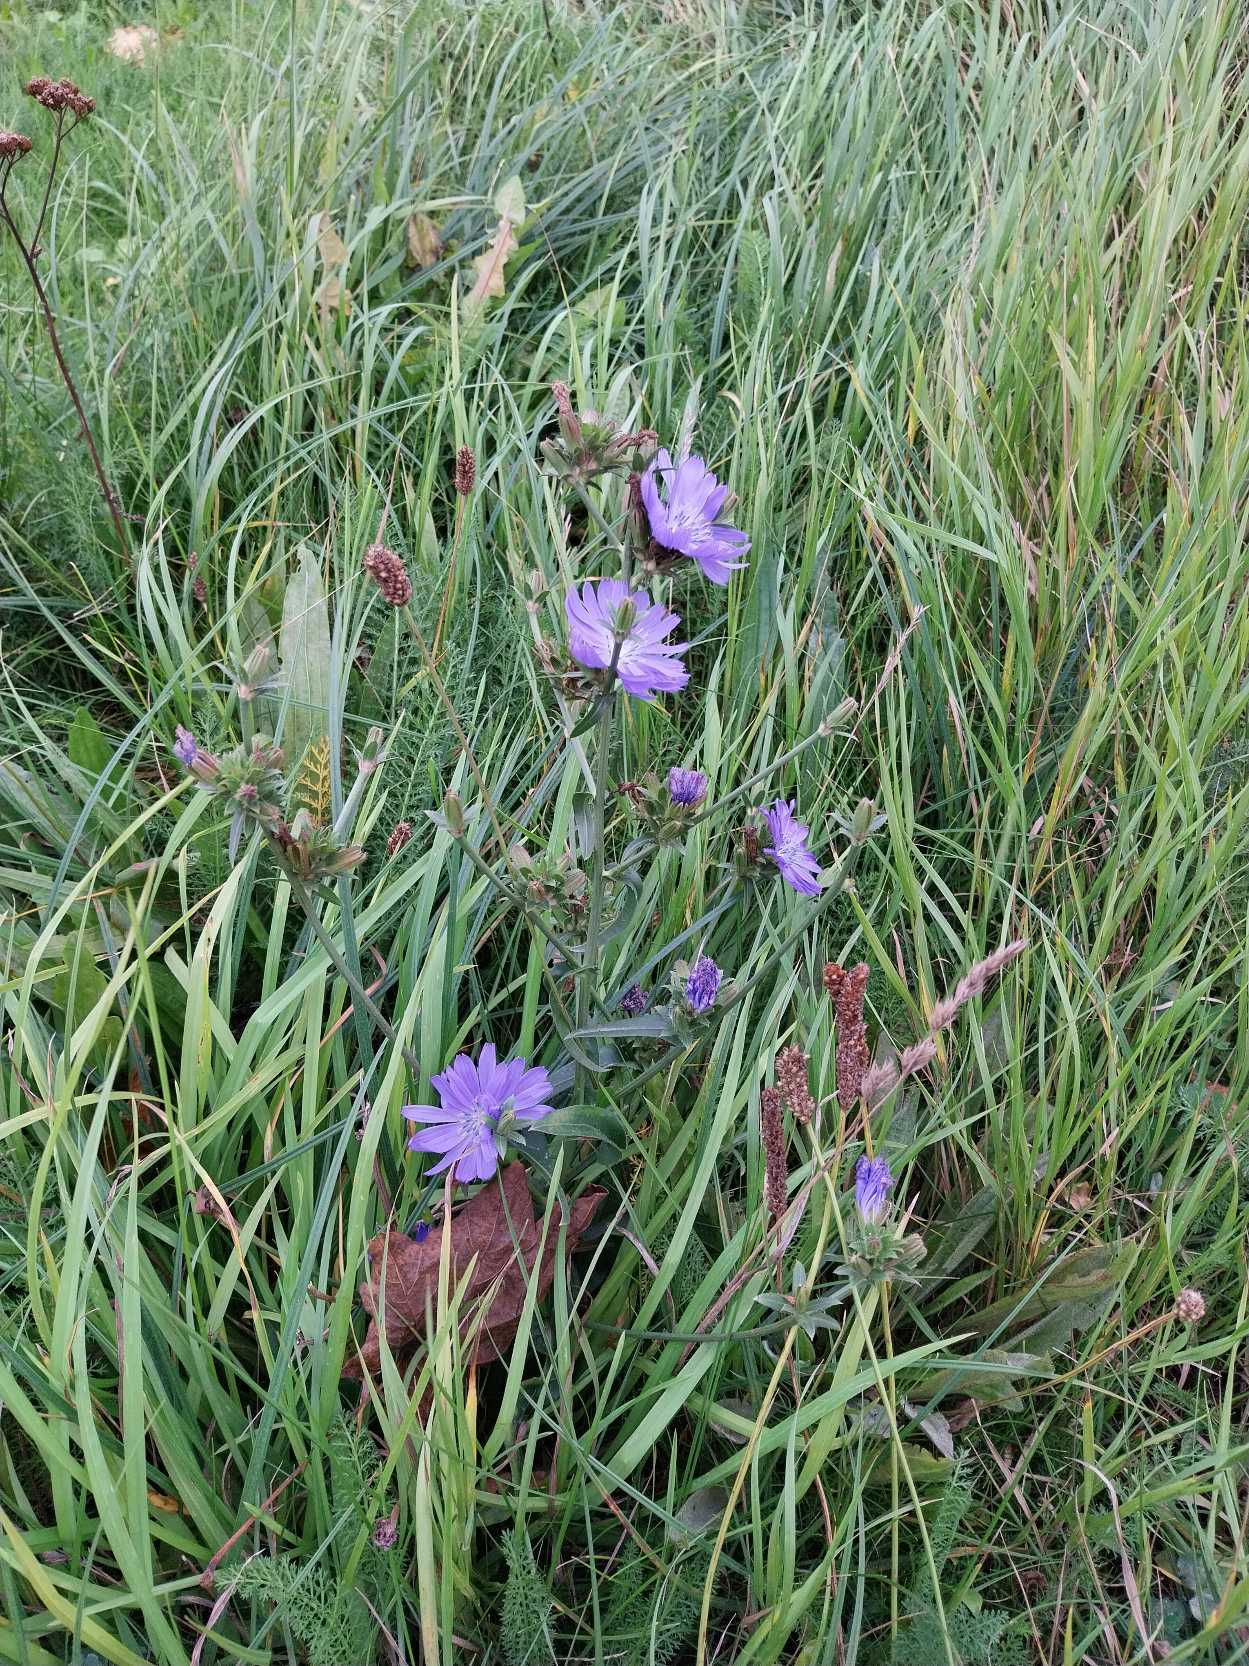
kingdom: Plantae
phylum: Tracheophyta
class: Magnoliopsida
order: Asterales
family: Asteraceae
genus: Cichorium
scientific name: Cichorium intybus
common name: Cikorie
